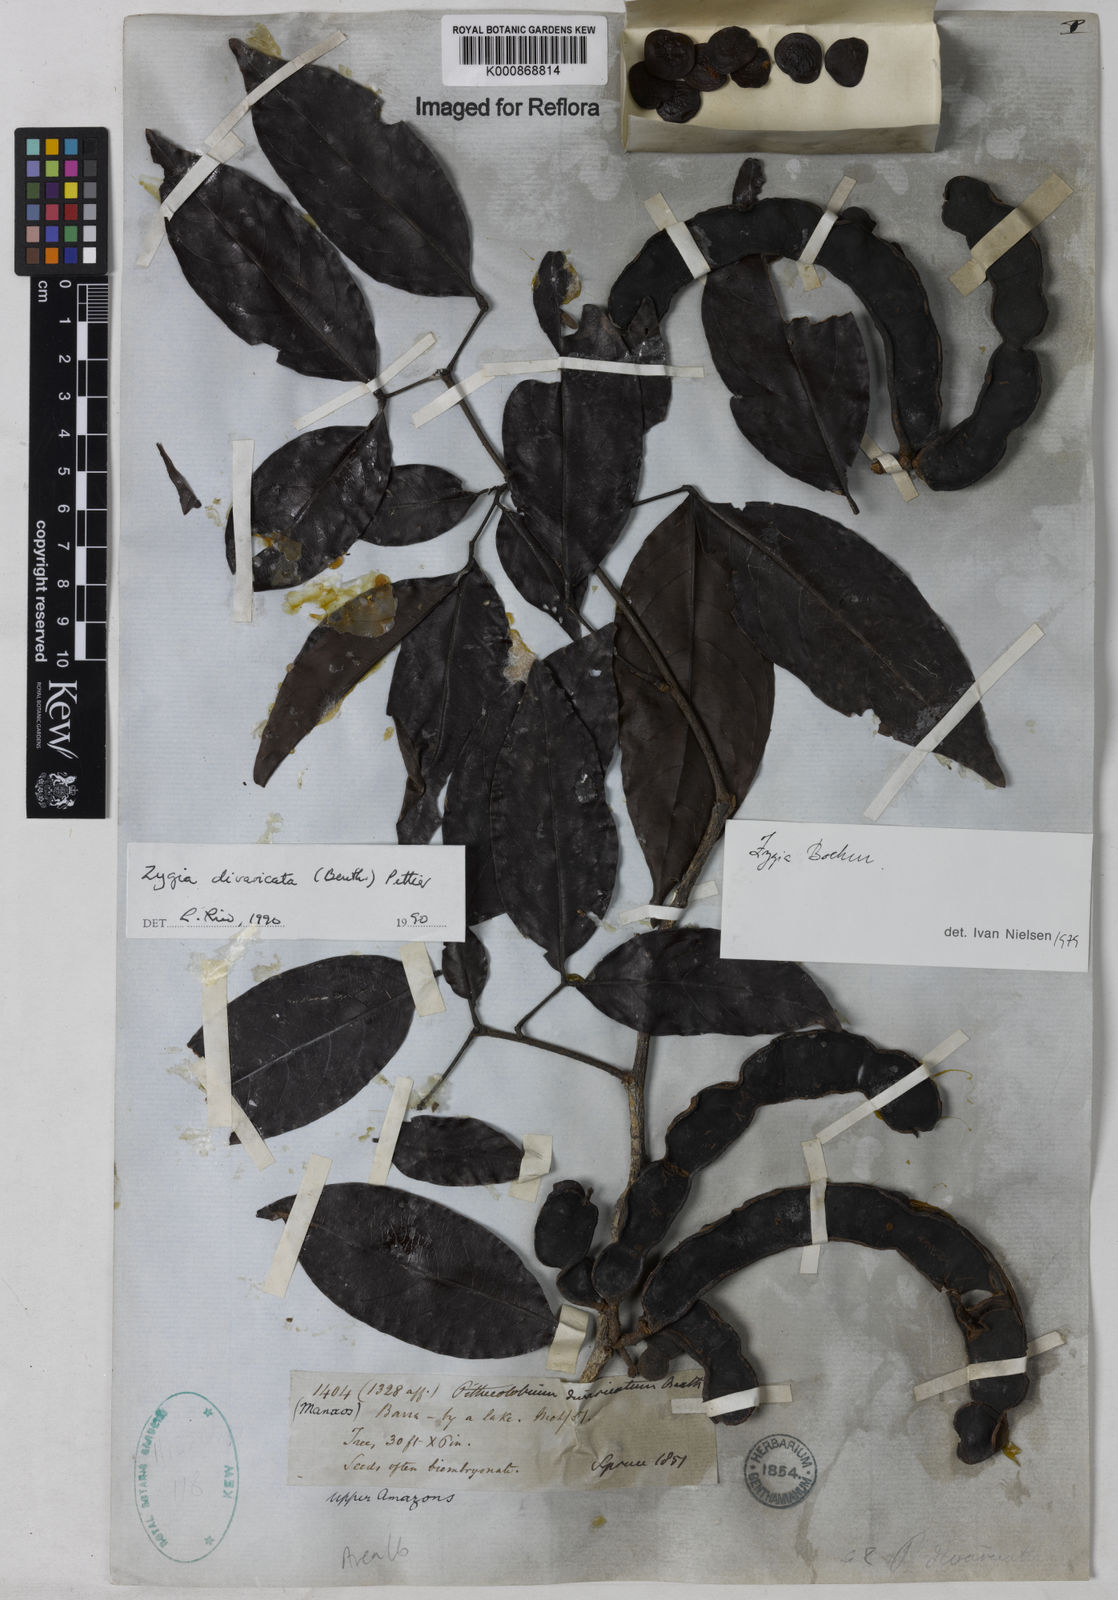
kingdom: Plantae
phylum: Tracheophyta
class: Magnoliopsida
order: Fabales
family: Fabaceae
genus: Zygia
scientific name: Zygia cataractae
